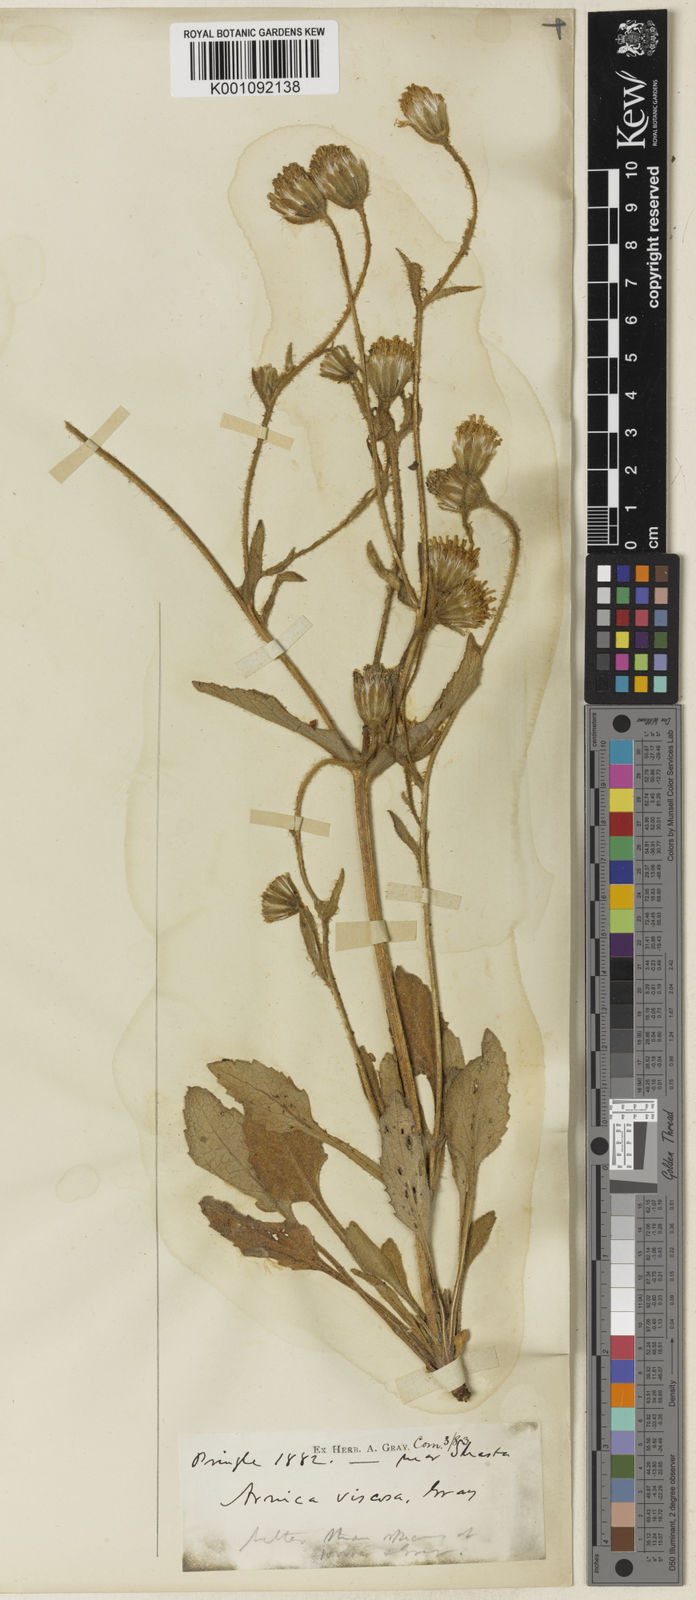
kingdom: Plantae
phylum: Tracheophyta
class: Magnoliopsida
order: Asterales
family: Asteraceae
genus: Arnica
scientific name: Arnica viscosa
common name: Mt. shasta arnica
